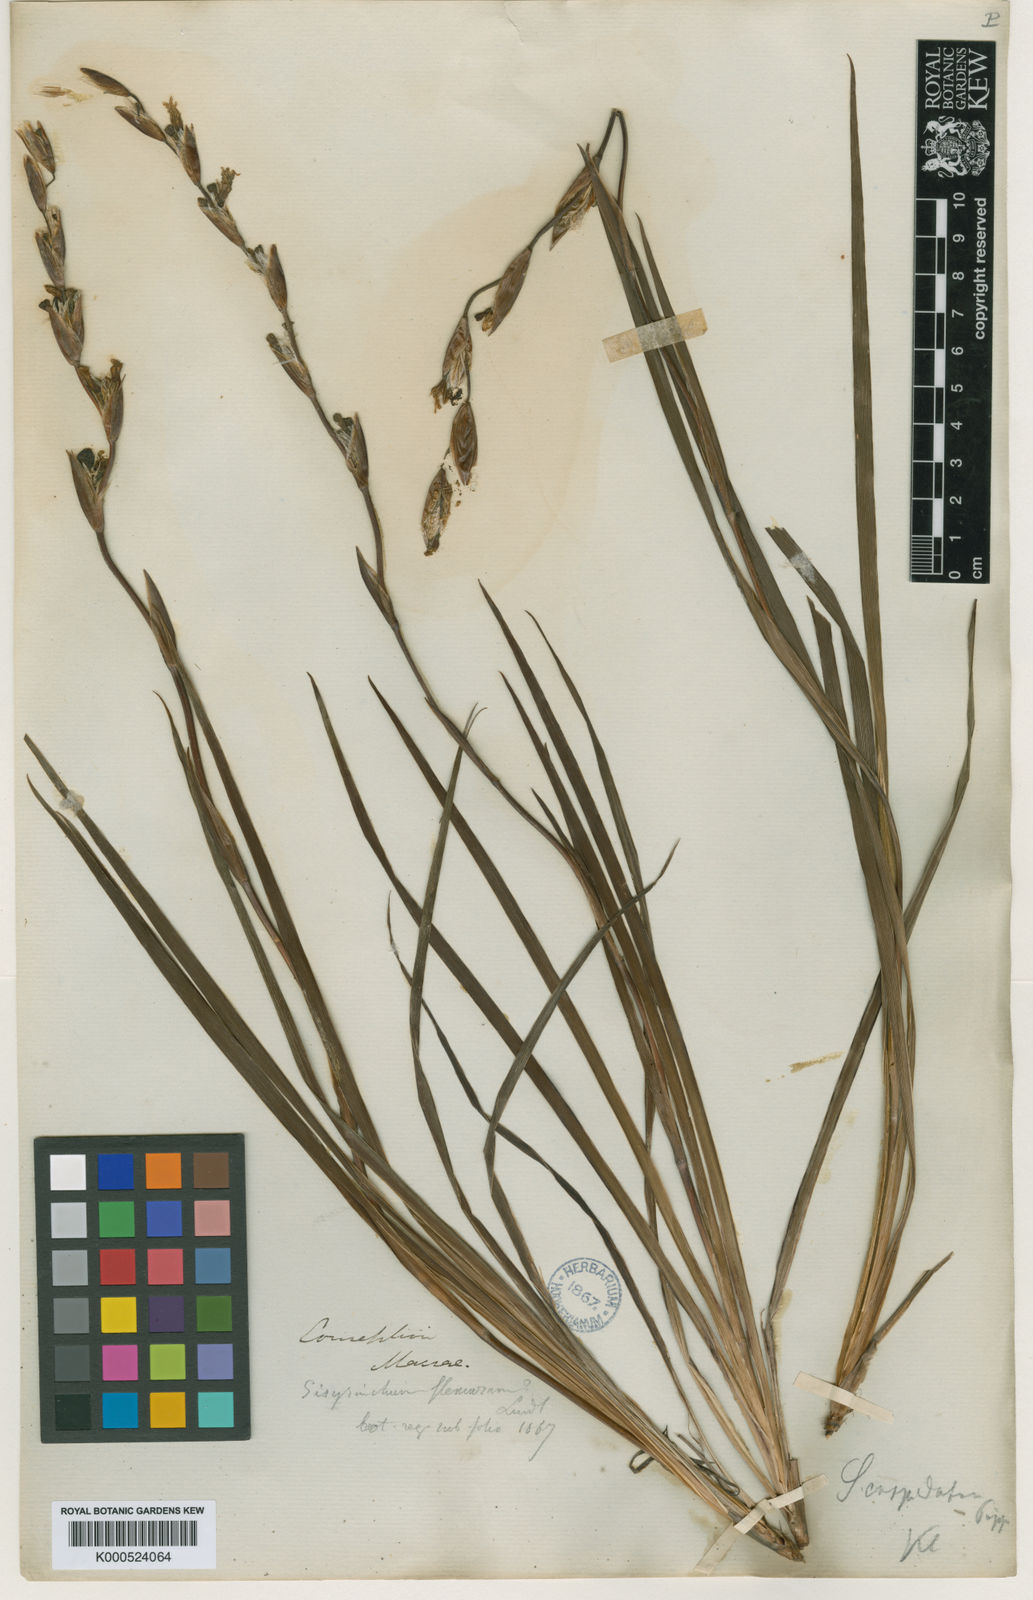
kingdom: Plantae
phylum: Tracheophyta
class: Liliopsida
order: Asparagales
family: Iridaceae
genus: Sisyrinchium
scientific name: Sisyrinchium cuspidatum
